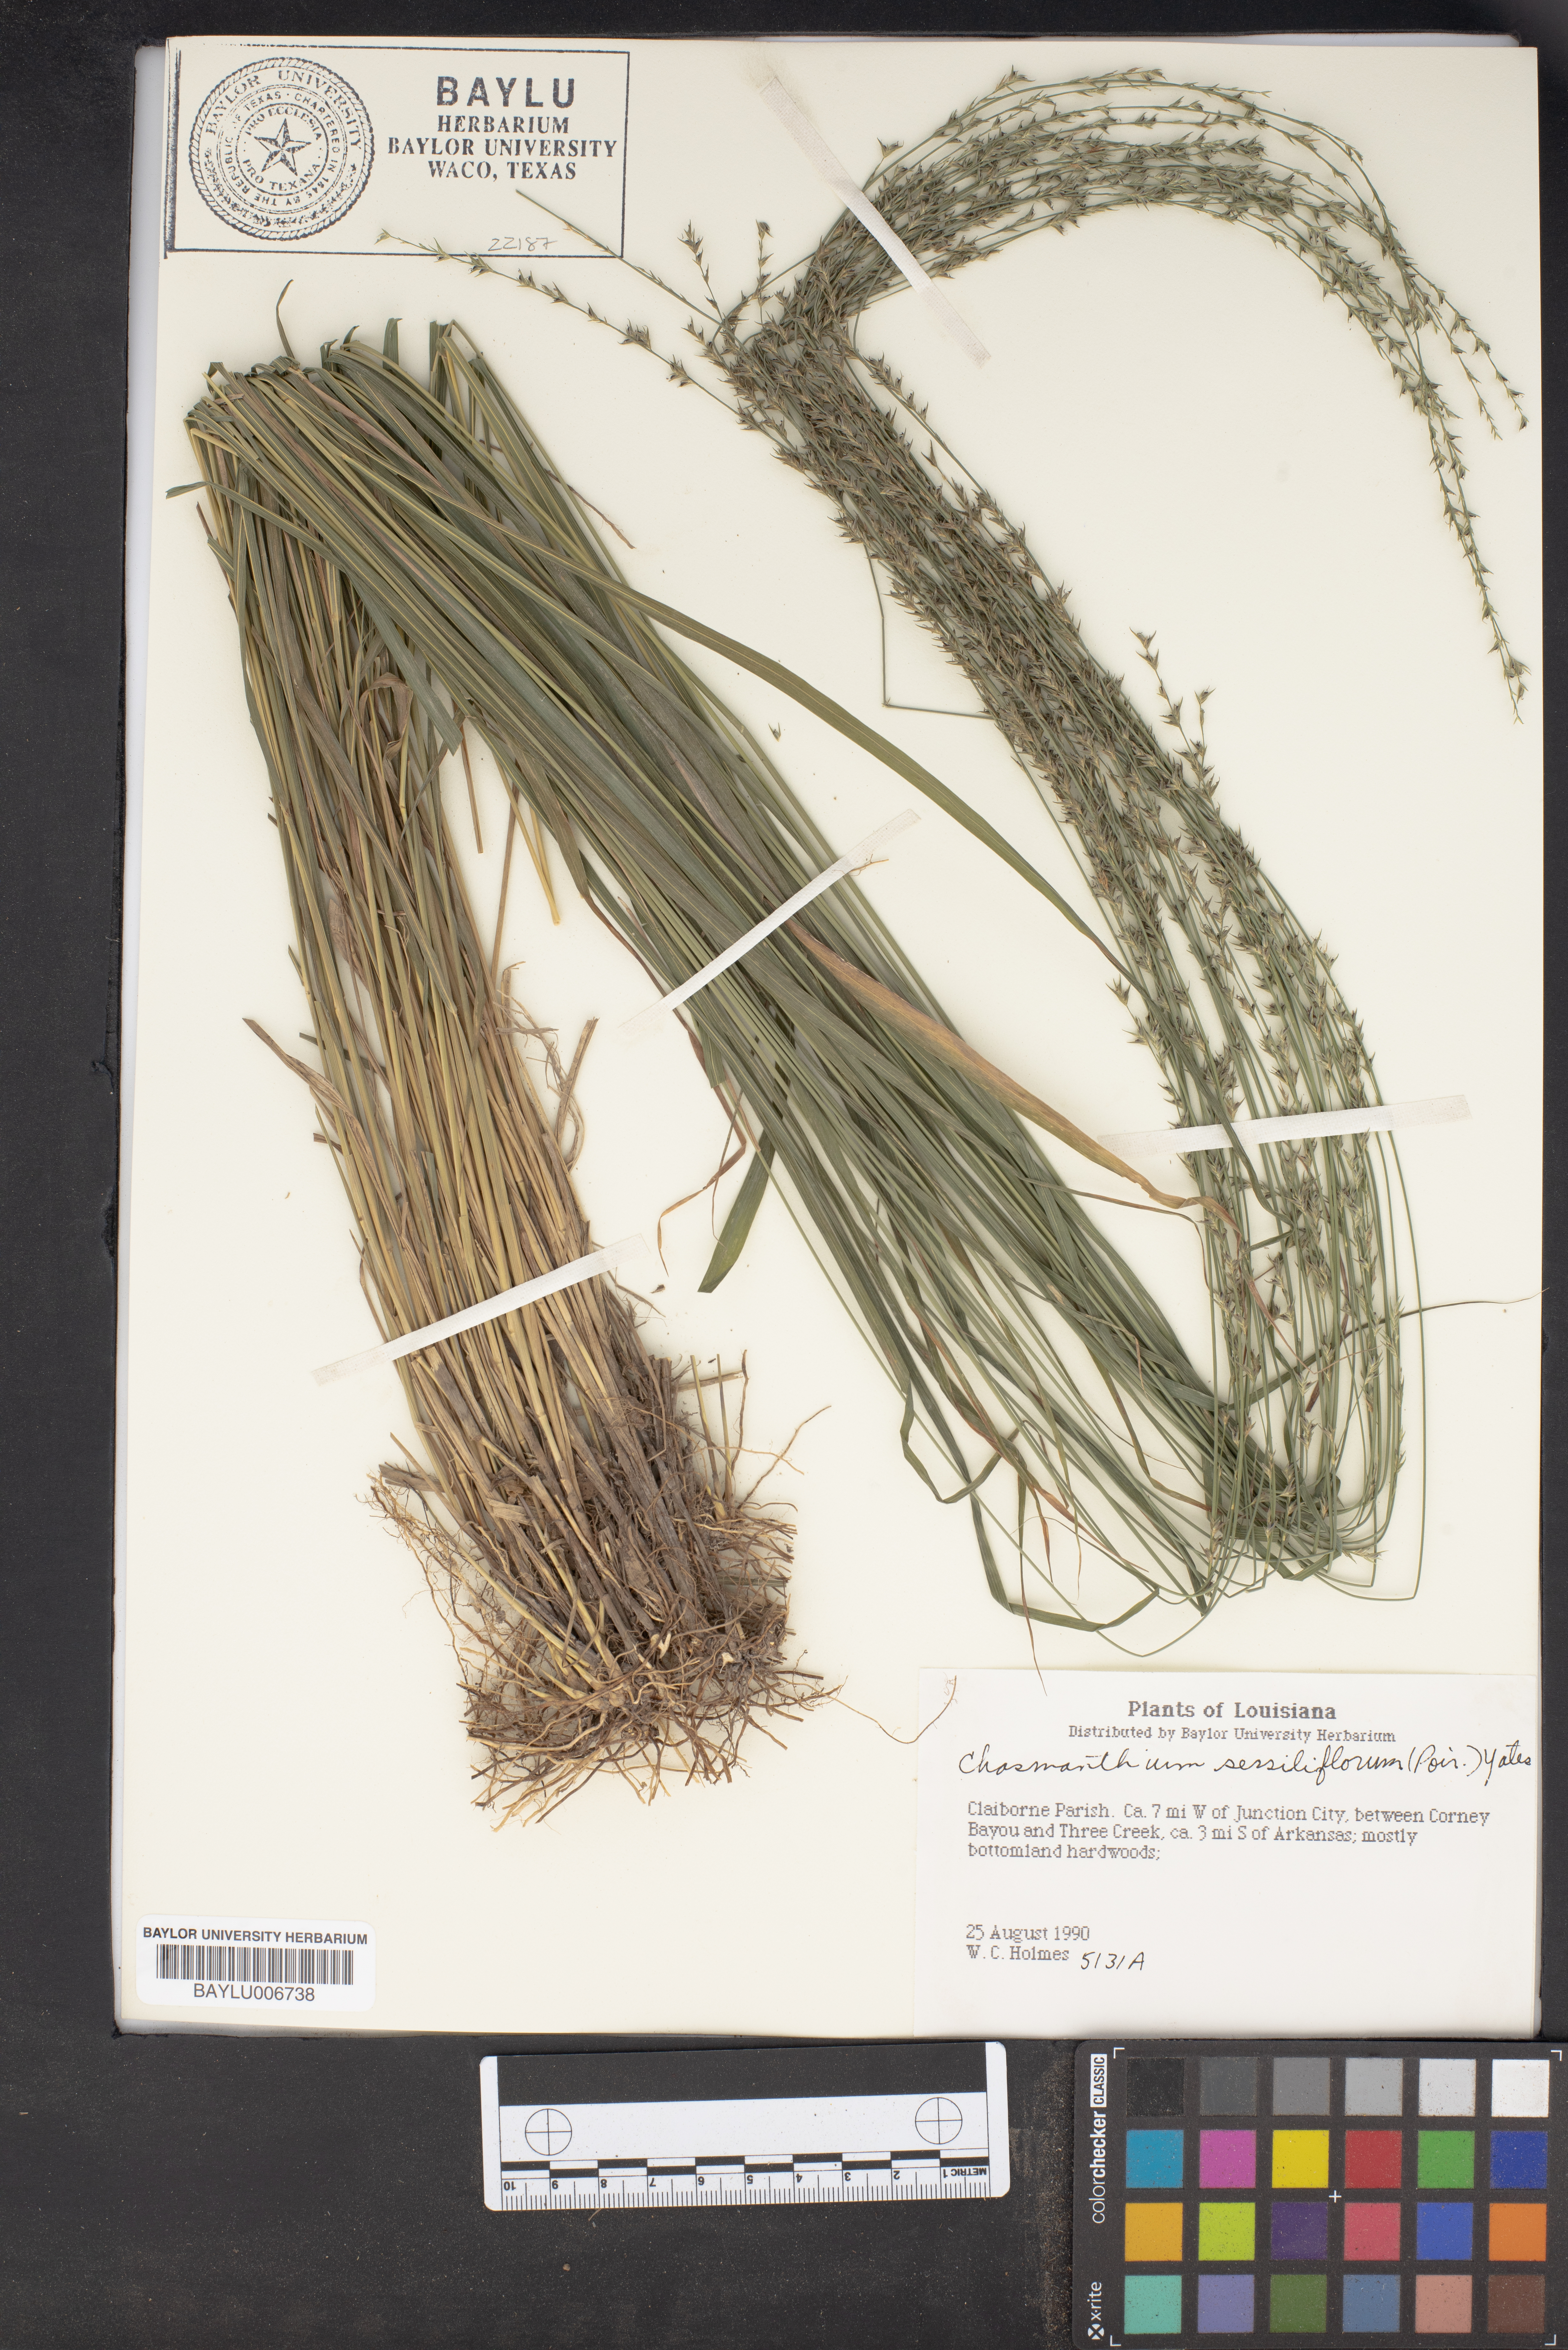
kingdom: Plantae
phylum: Tracheophyta
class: Liliopsida
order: Poales
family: Poaceae
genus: Chasmanthium
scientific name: Chasmanthium laxum
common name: Slender chasmanthium
